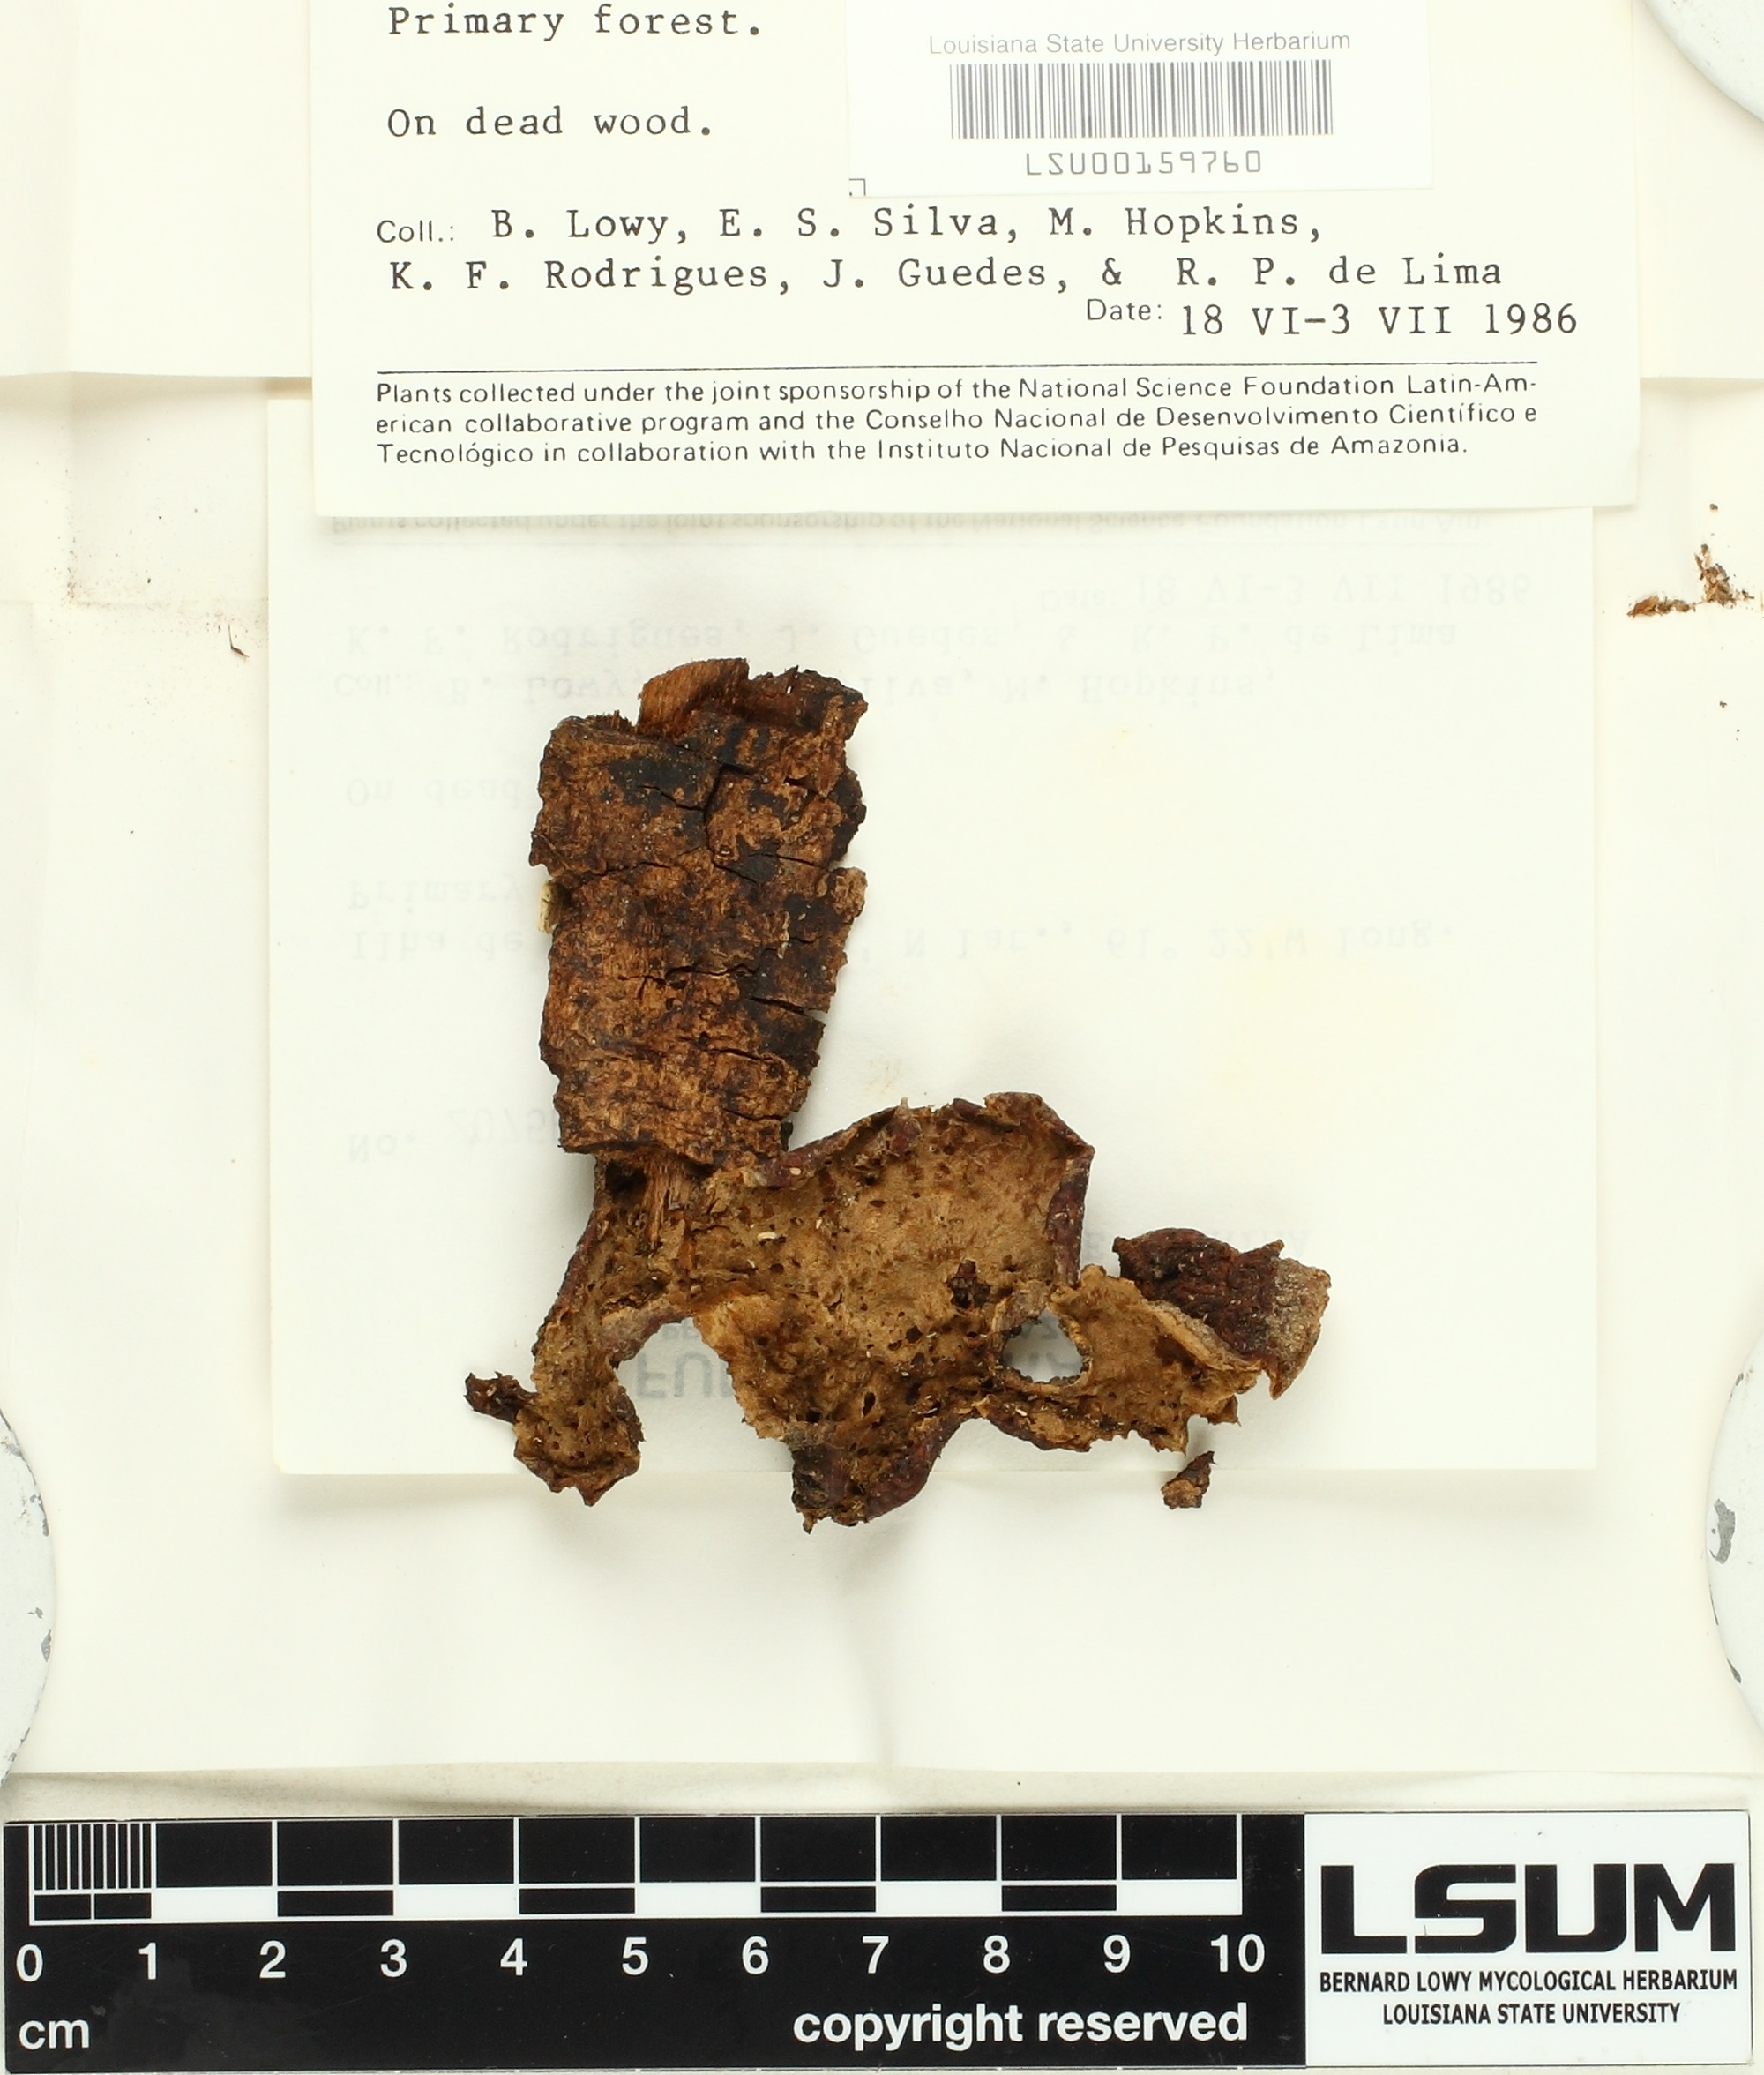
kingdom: Fungi
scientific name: Fungi
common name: Fungi
